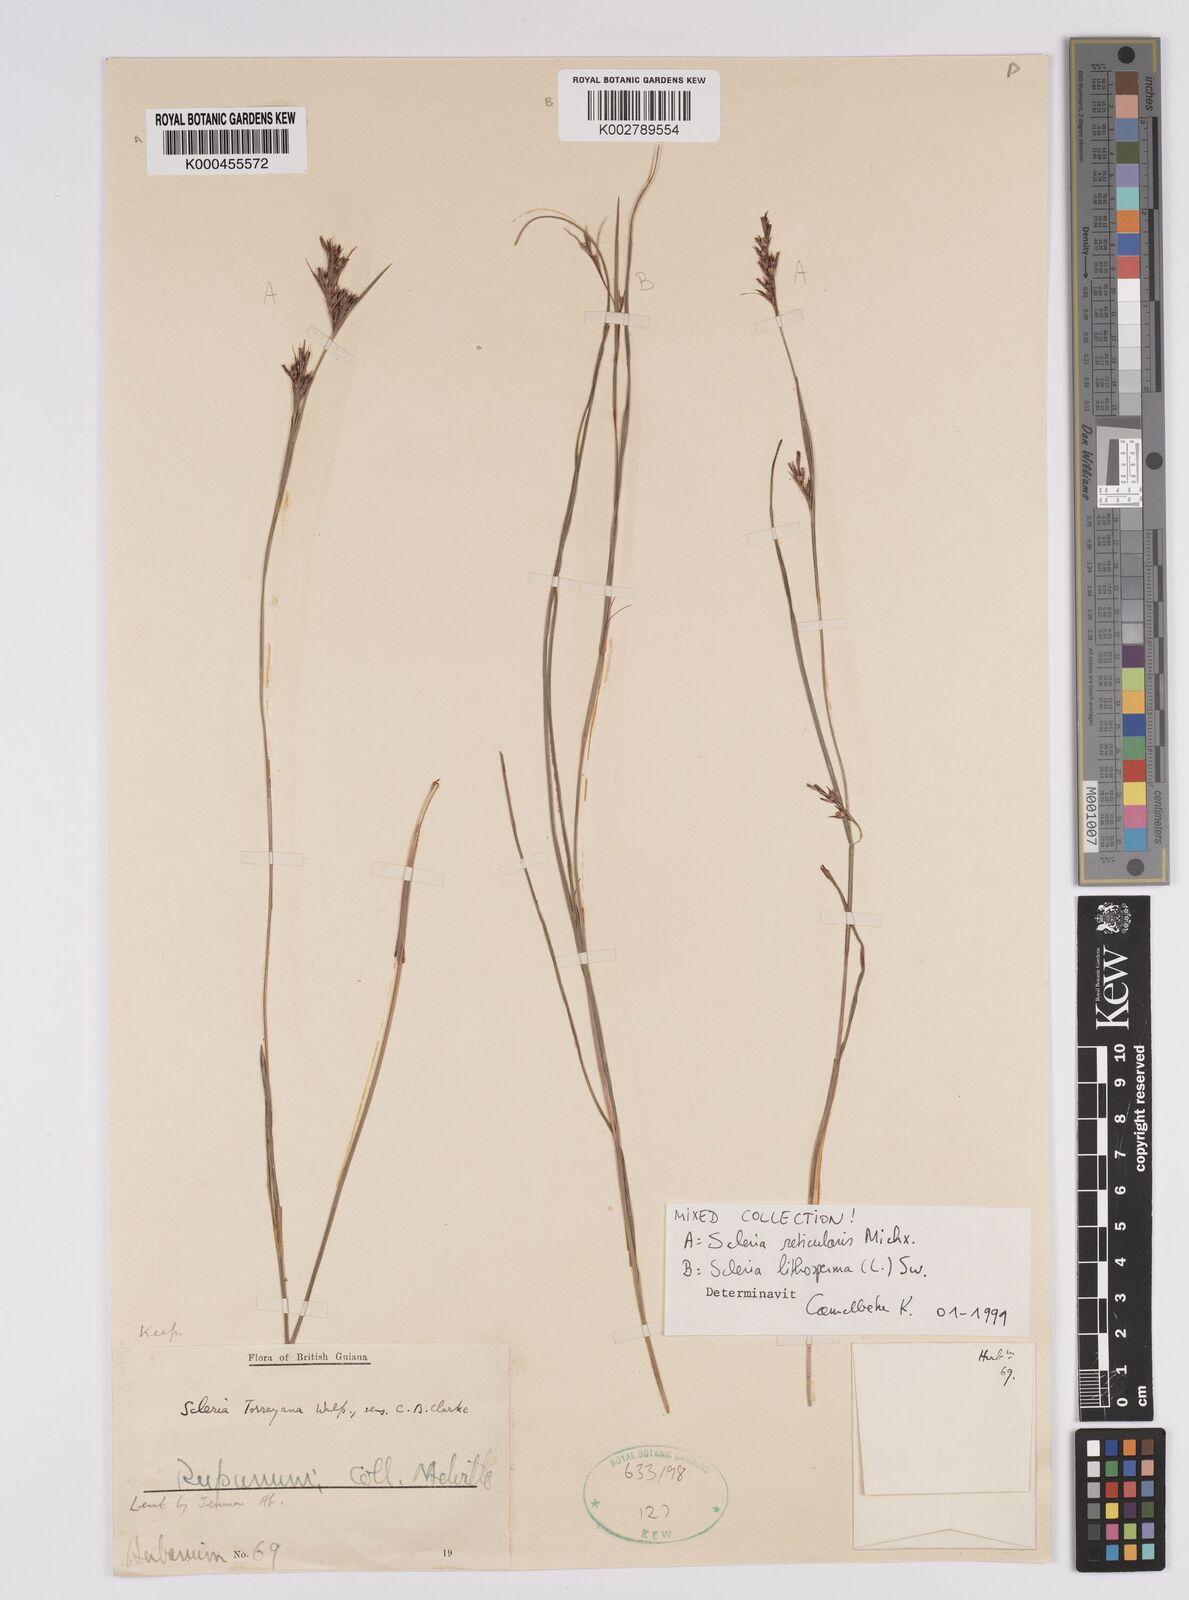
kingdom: Plantae
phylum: Tracheophyta
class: Liliopsida
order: Poales
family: Cyperaceae
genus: Scleria
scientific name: Scleria reticularis
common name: Netted nutrush
